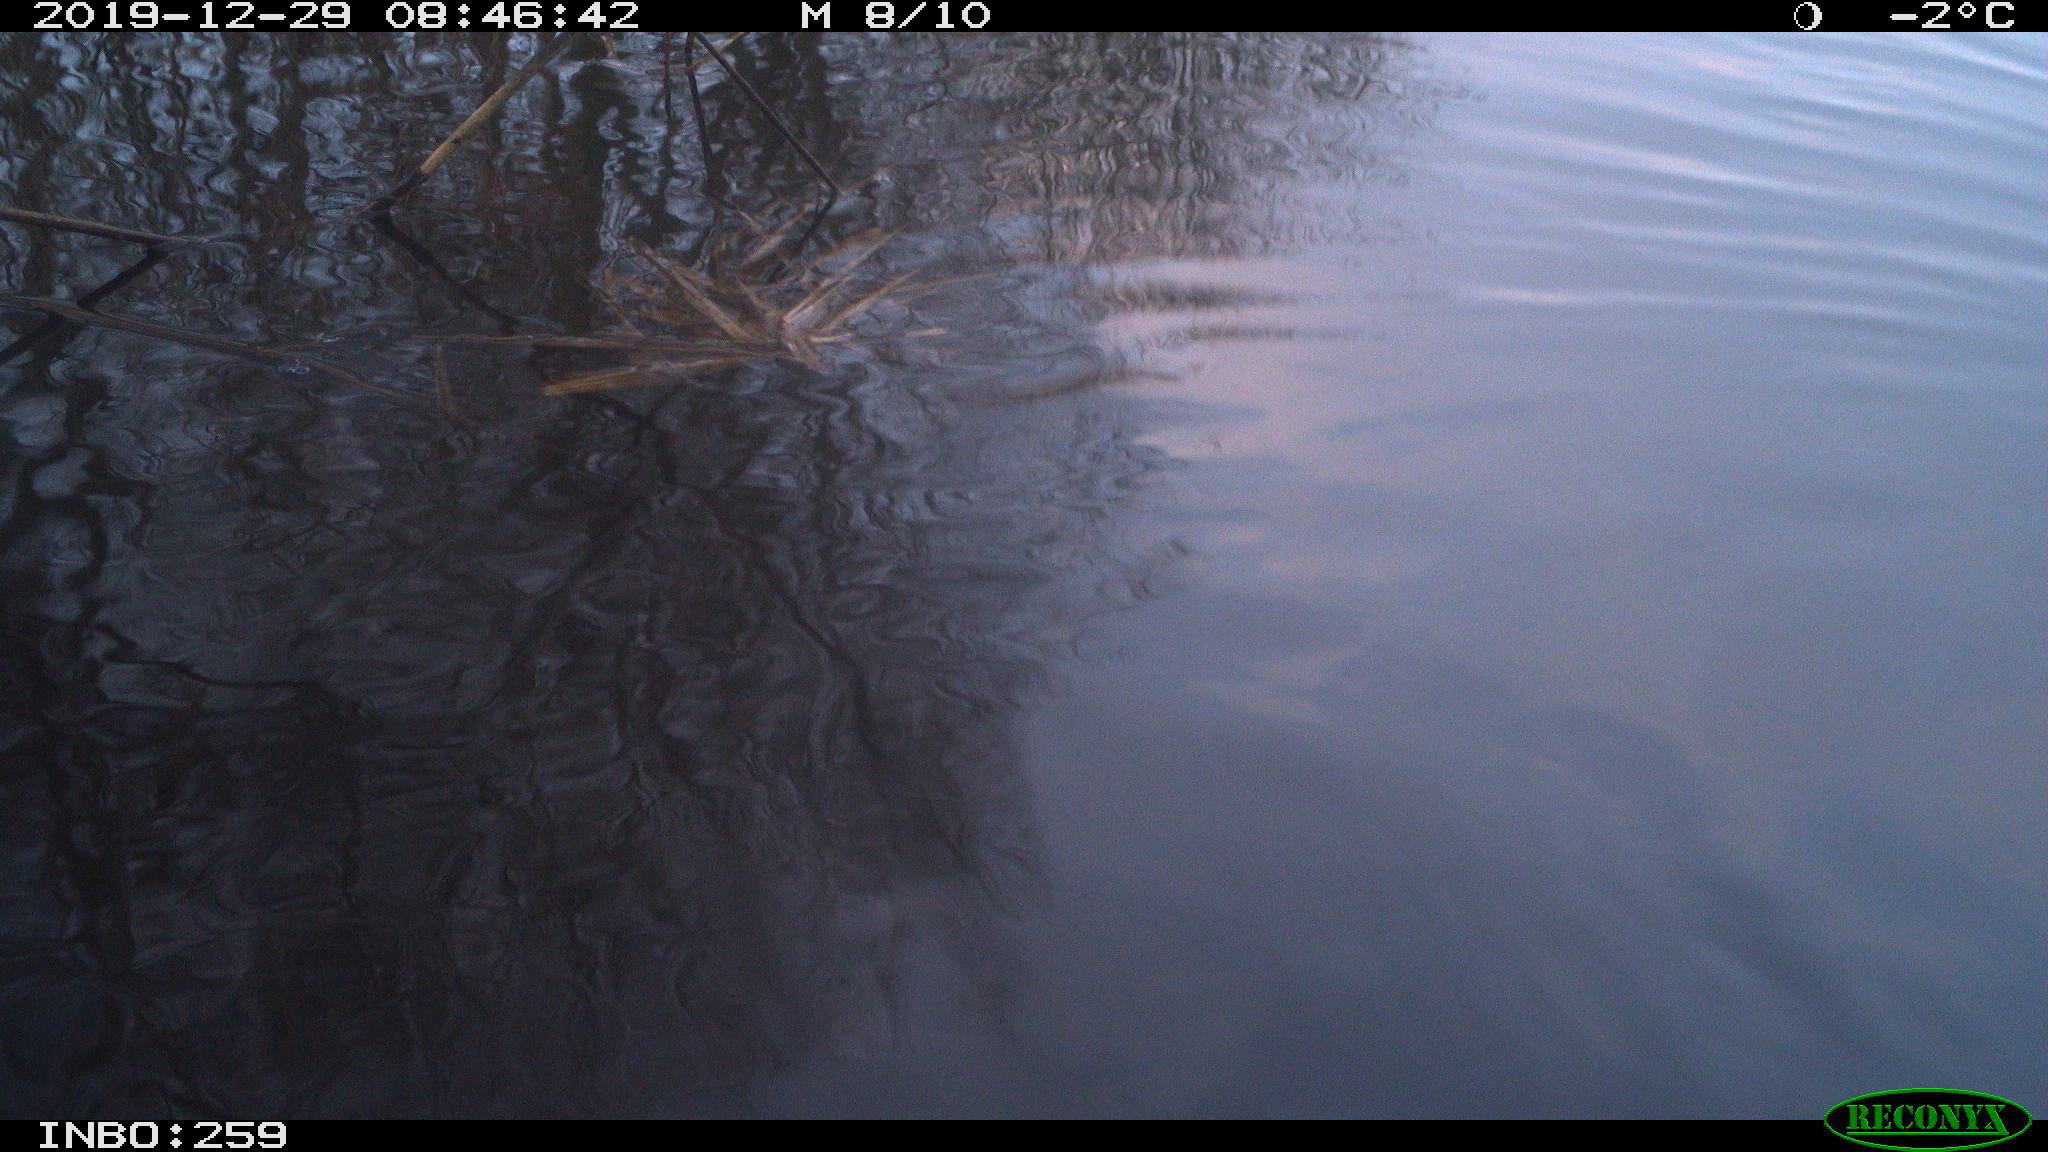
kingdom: Animalia
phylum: Chordata
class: Aves
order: Gruiformes
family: Rallidae
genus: Gallinula
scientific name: Gallinula chloropus
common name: Common moorhen
